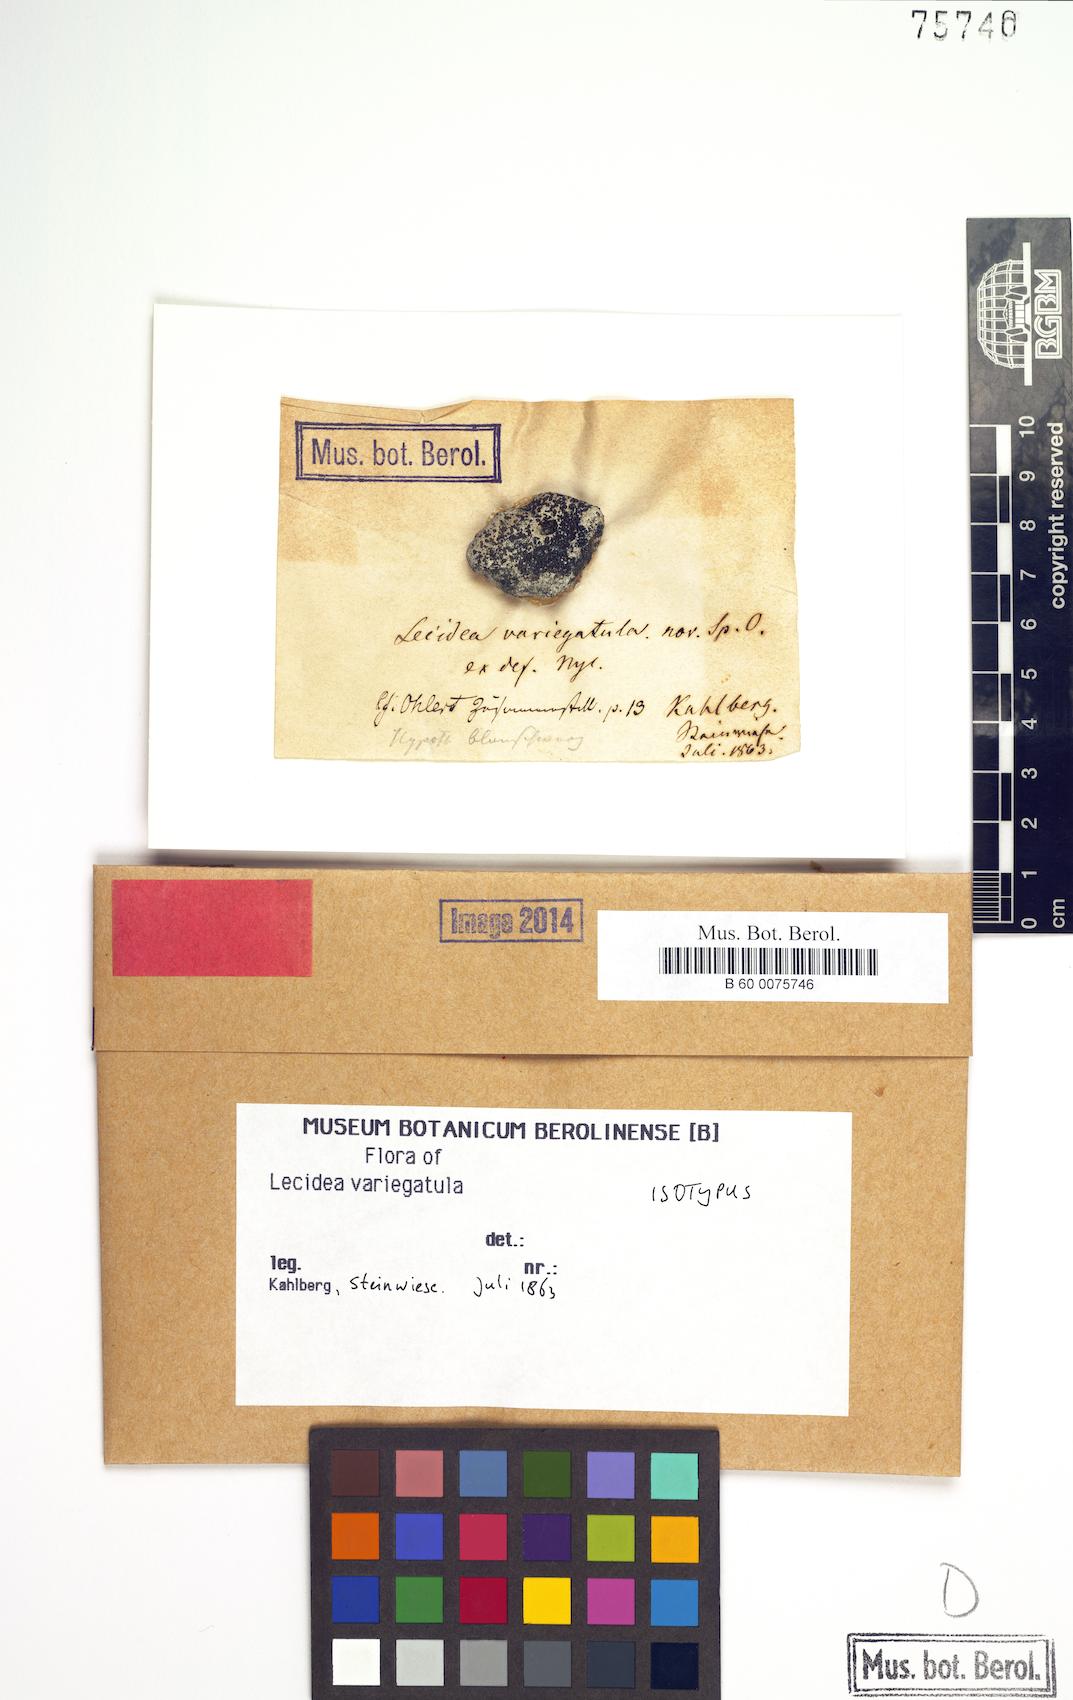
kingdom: Fungi
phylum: Ascomycota
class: Lecanoromycetes
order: Lecideales
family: Lecideaceae
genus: Lecidea
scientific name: Lecidea variegatula
